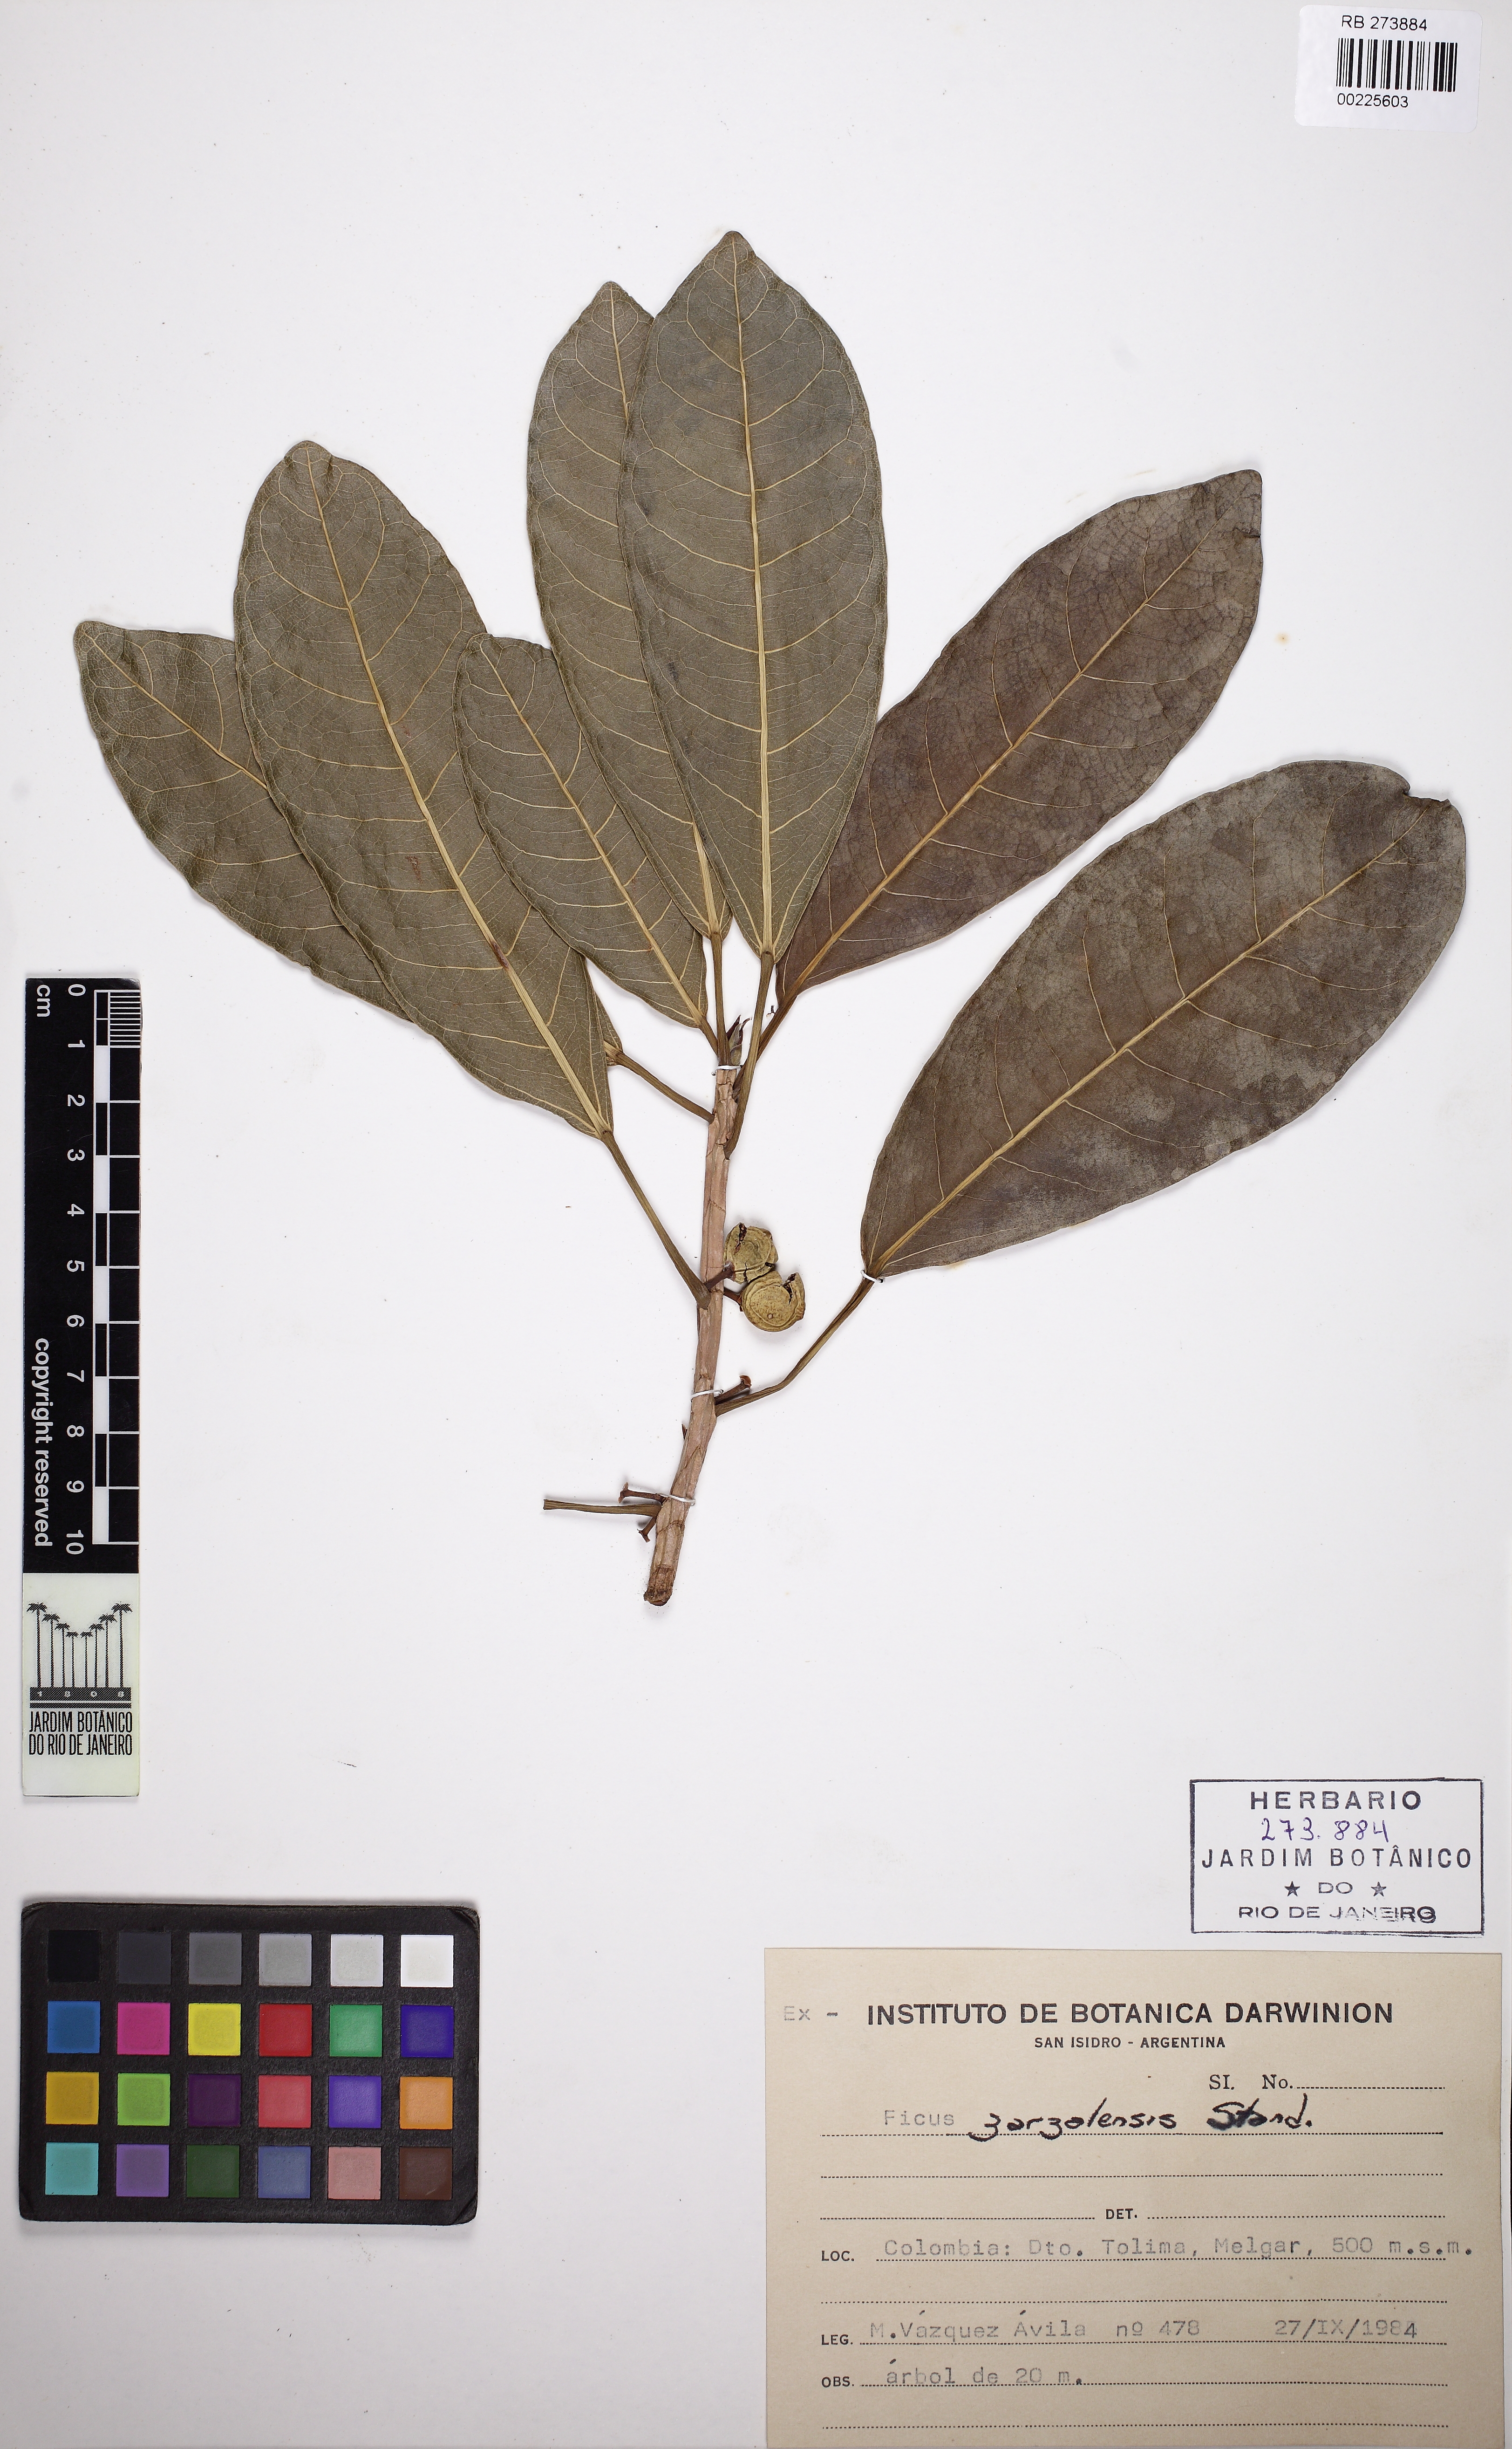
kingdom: Plantae
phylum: Tracheophyta
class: Magnoliopsida
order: Rosales
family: Moraceae
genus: Ficus
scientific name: Ficus zarzalensis
